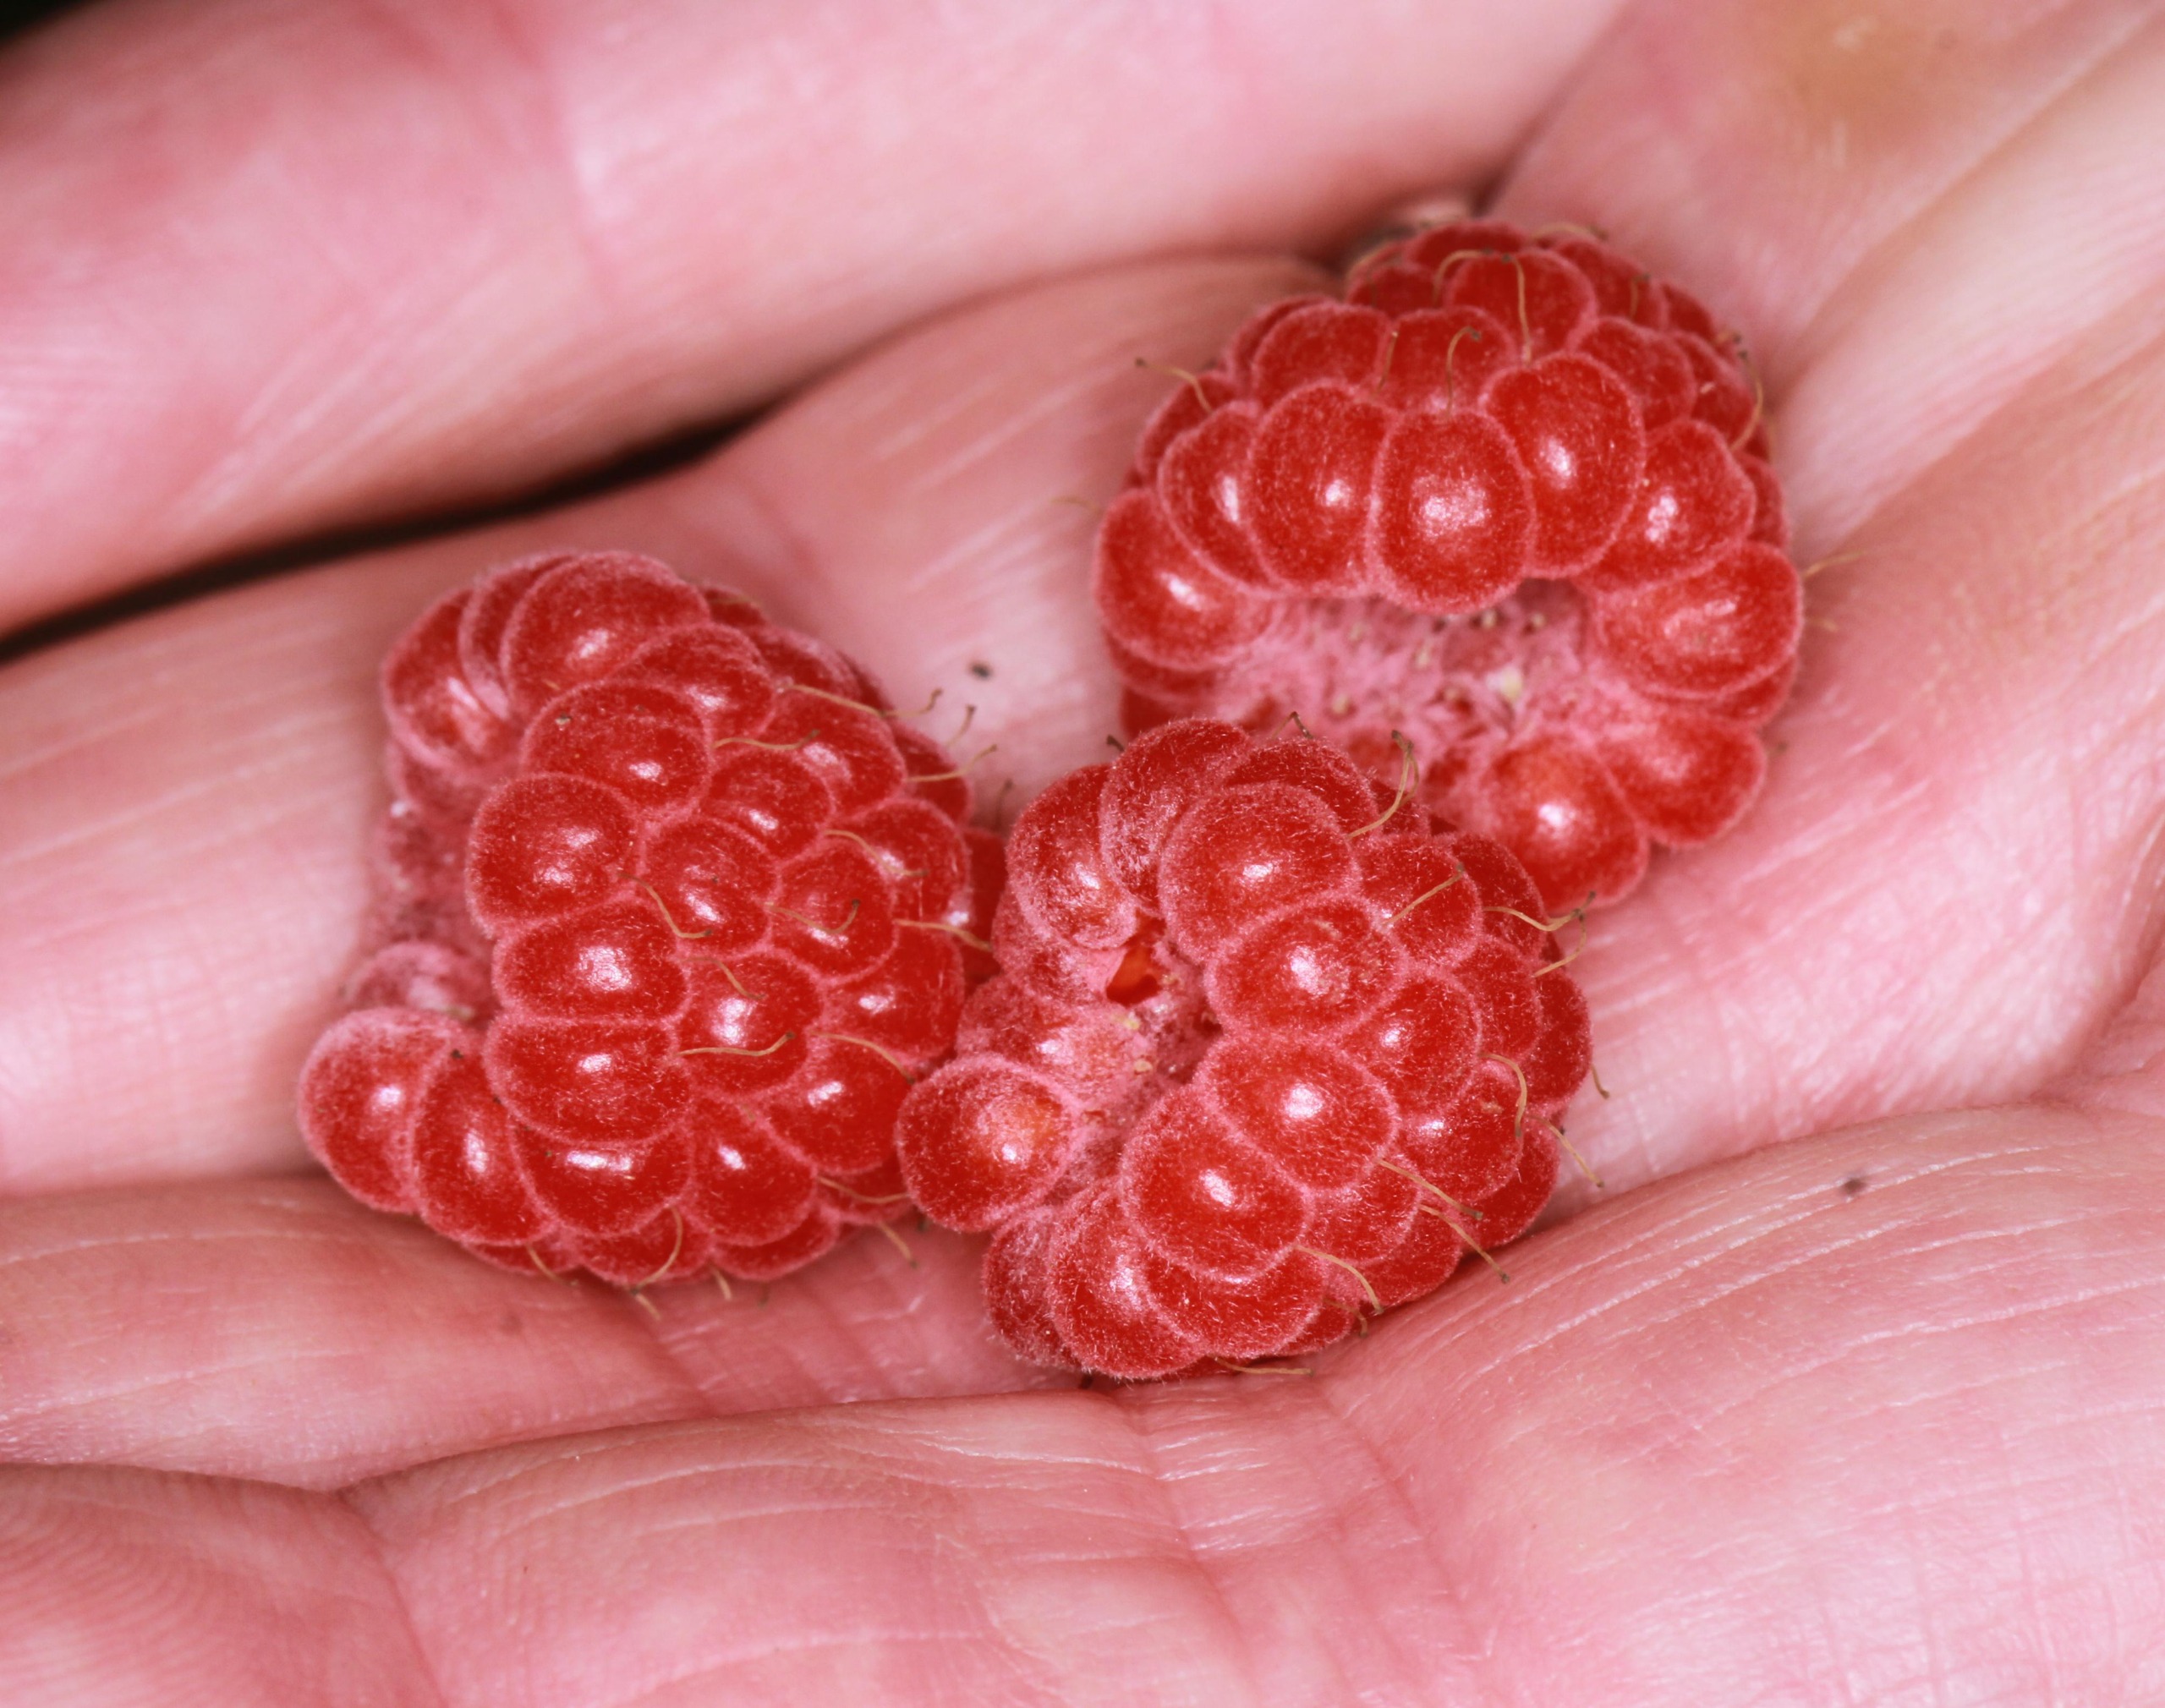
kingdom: Plantae
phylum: Tracheophyta
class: Magnoliopsida
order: Rosales
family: Rosaceae
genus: Rubus
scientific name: Rubus idaeus
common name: Hindbær
